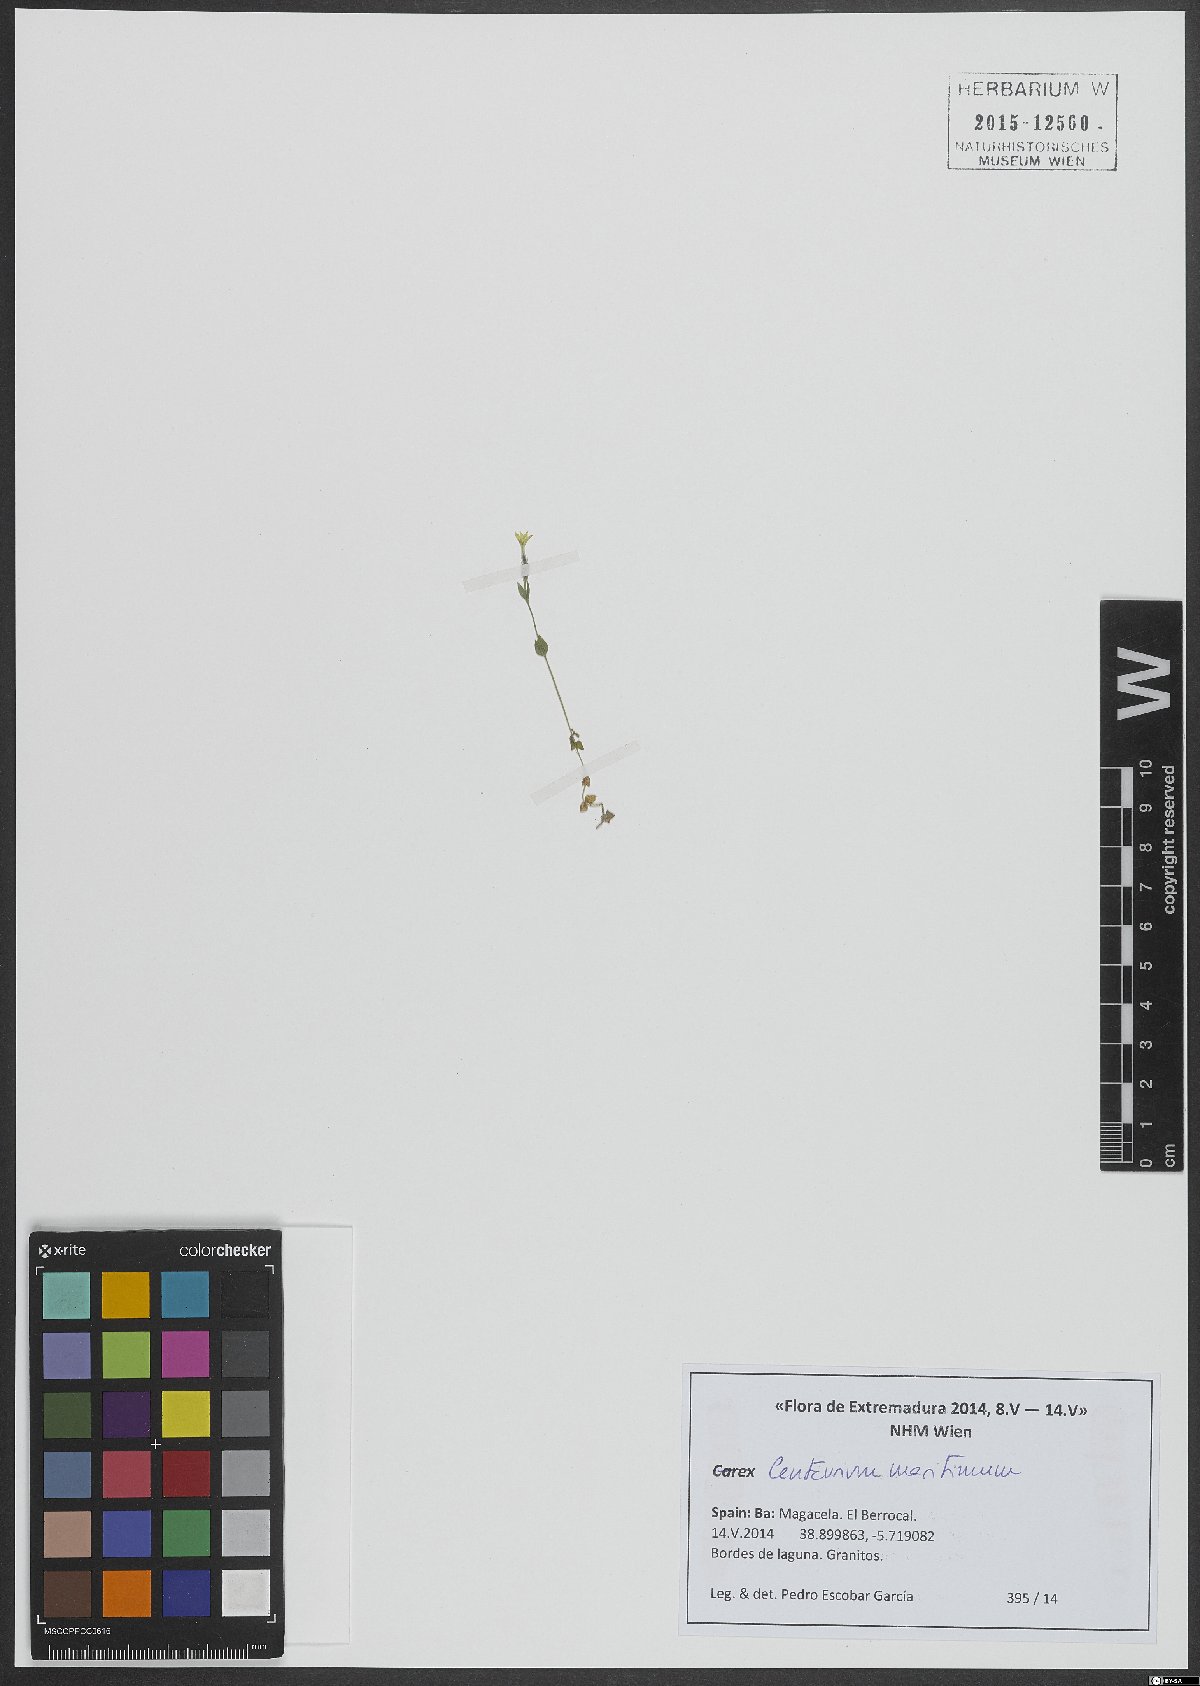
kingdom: Plantae
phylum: Tracheophyta
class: Magnoliopsida
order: Gentianales
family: Gentianaceae
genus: Centaurium
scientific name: Centaurium maritimum
